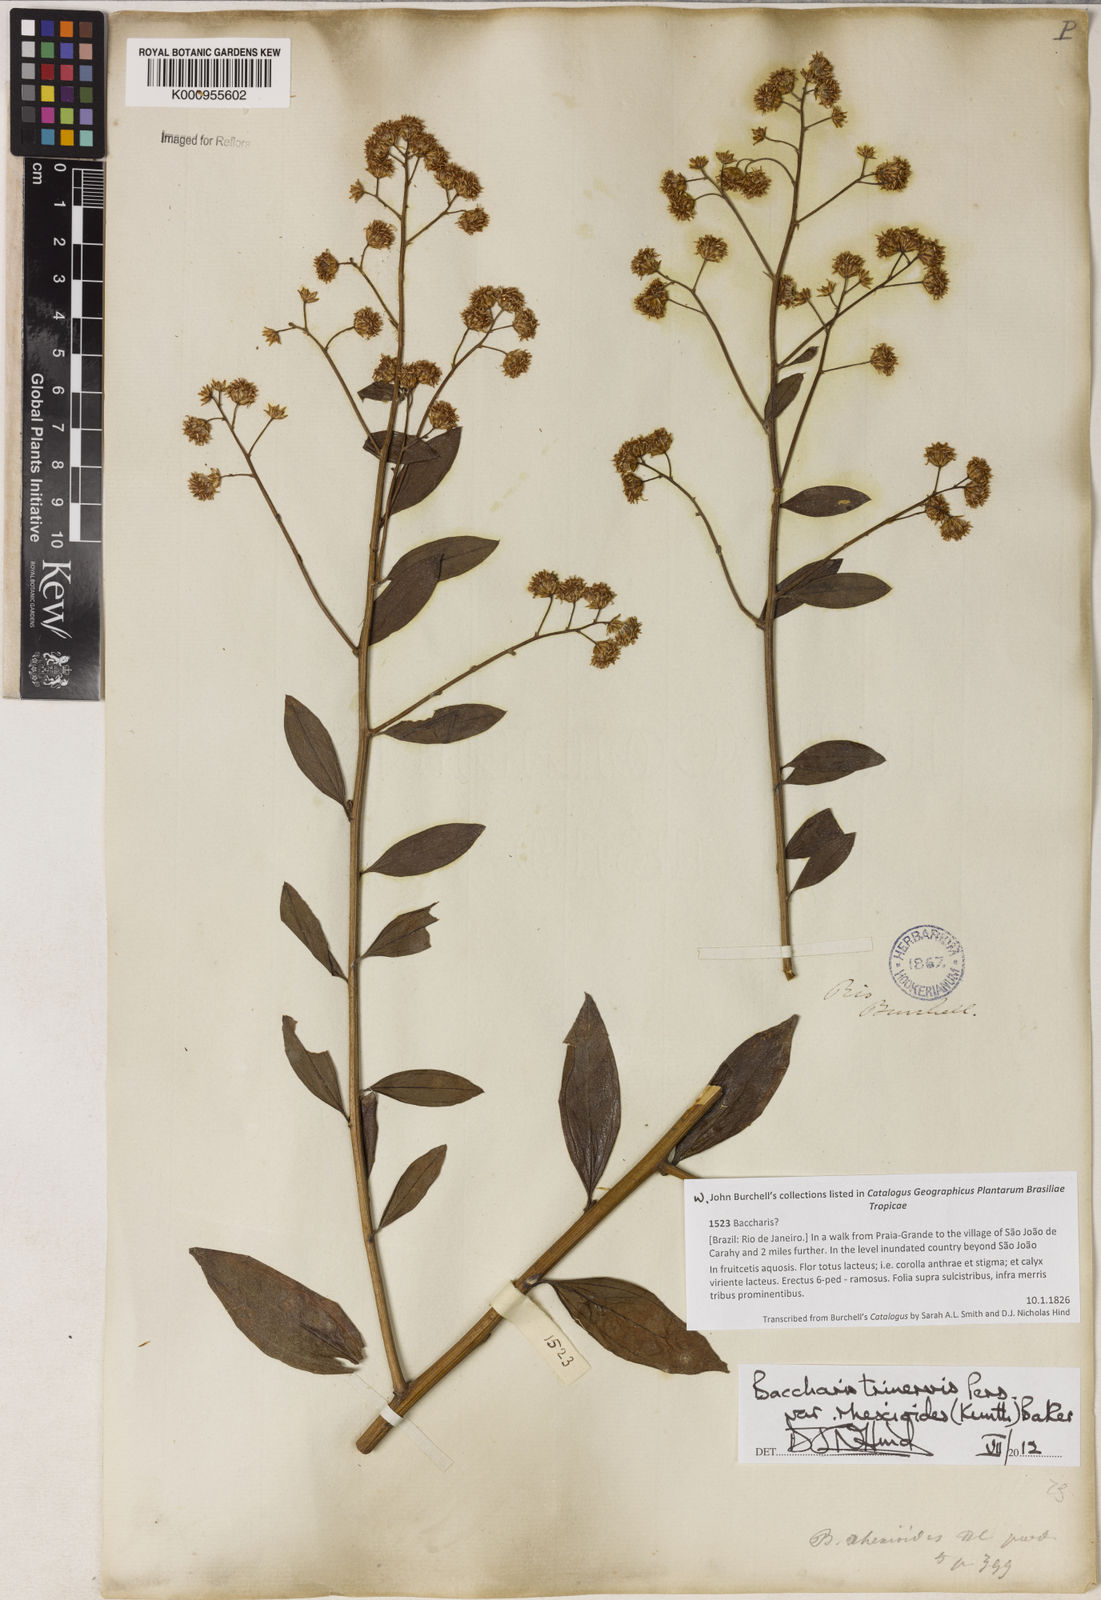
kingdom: Plantae
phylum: Tracheophyta
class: Magnoliopsida
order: Asterales
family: Asteraceae
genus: Baccharis
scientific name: Baccharis trinervis
